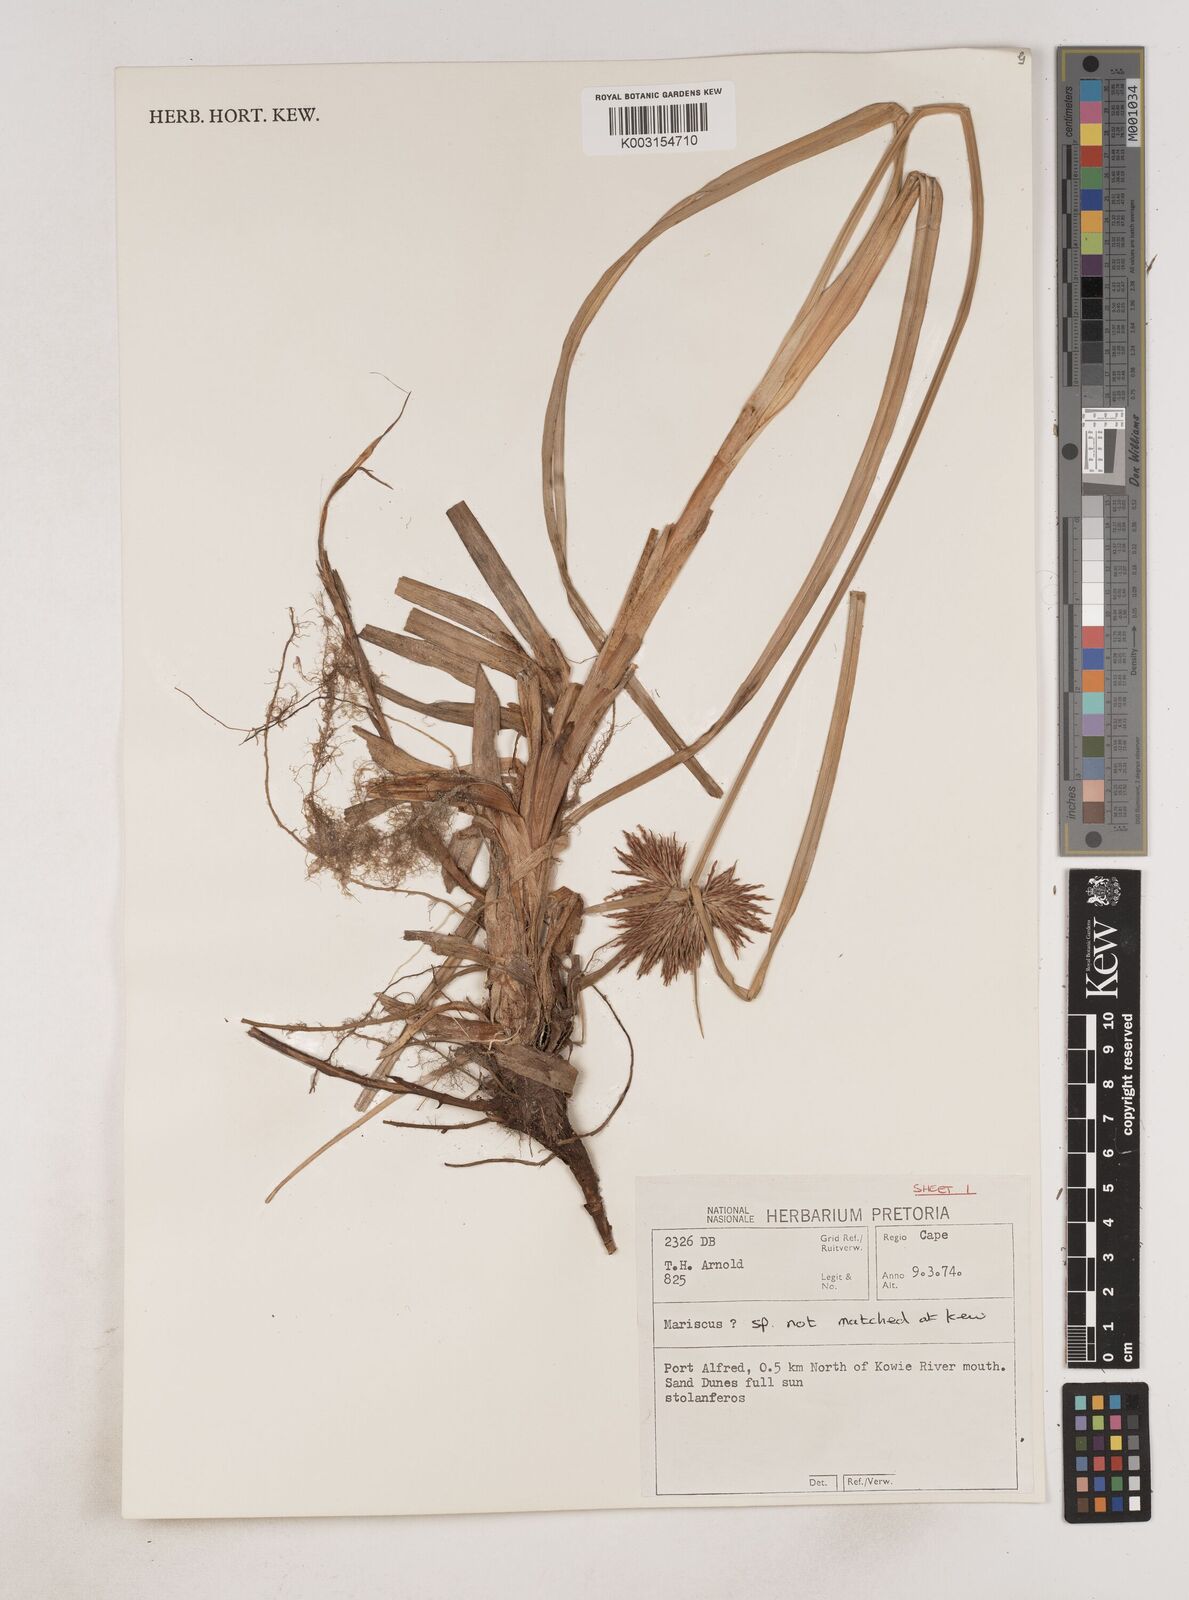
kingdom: Plantae
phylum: Tracheophyta
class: Liliopsida
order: Poales
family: Cyperaceae
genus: Cyperus
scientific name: Cyperus
